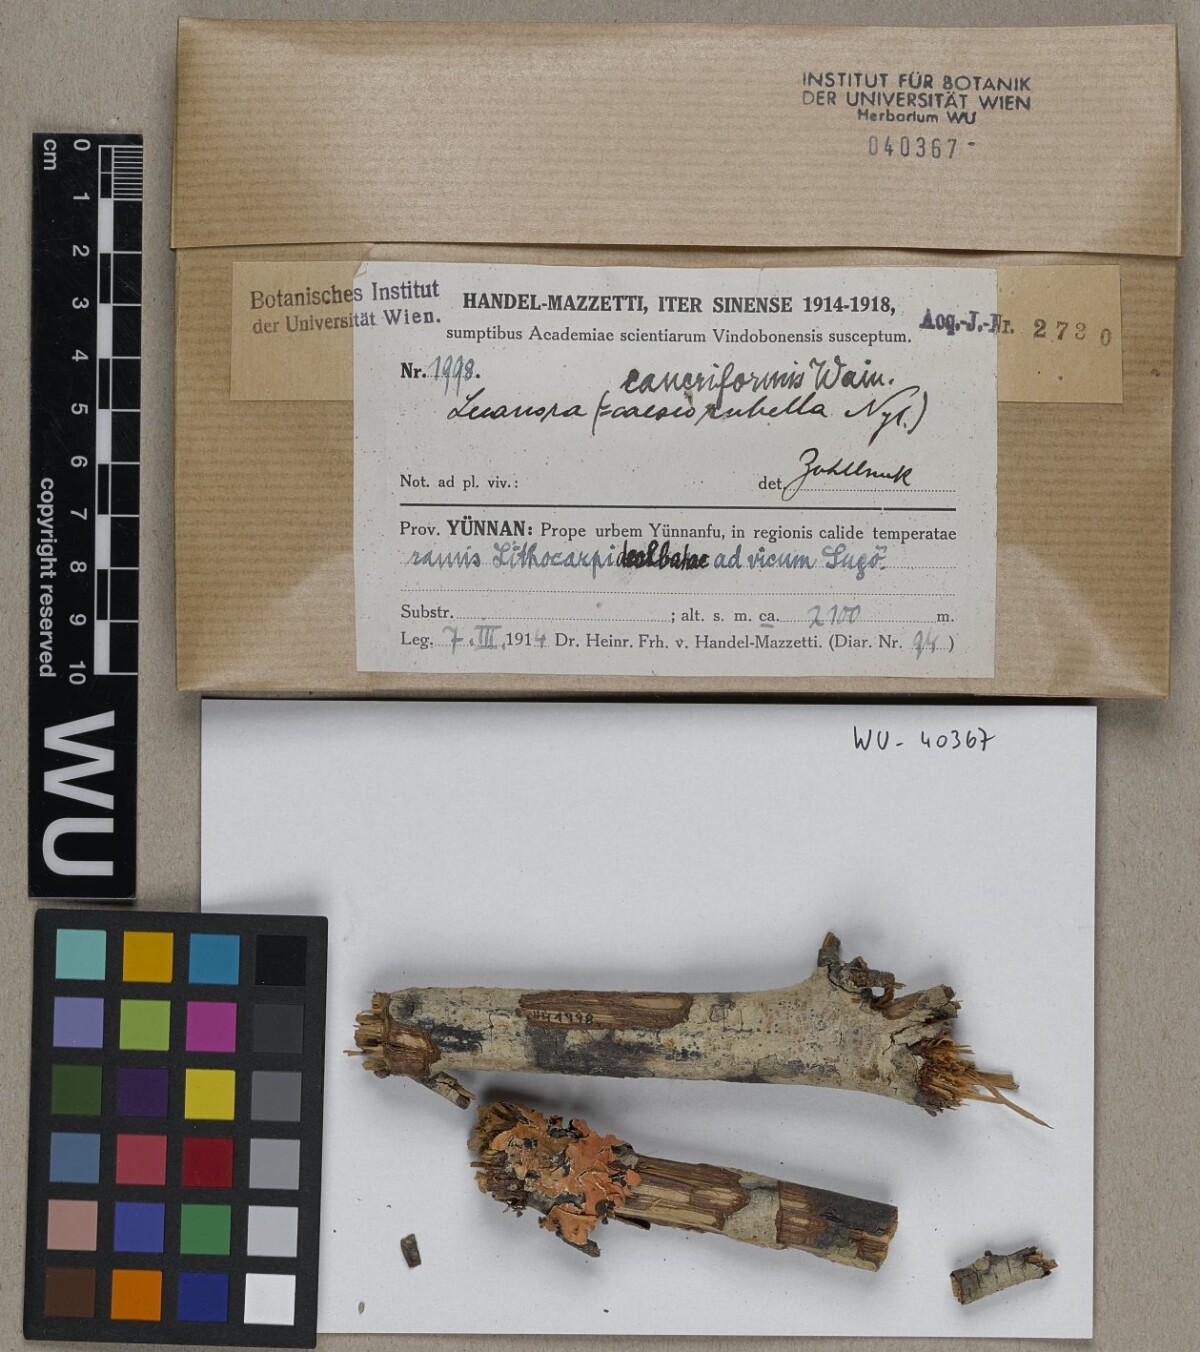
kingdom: Fungi
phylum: Ascomycota
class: Lecanoromycetes
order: Lecanorales
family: Lecanoraceae
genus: Lecanora
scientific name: Lecanora caesiorubella
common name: Frosted rim-lichen
